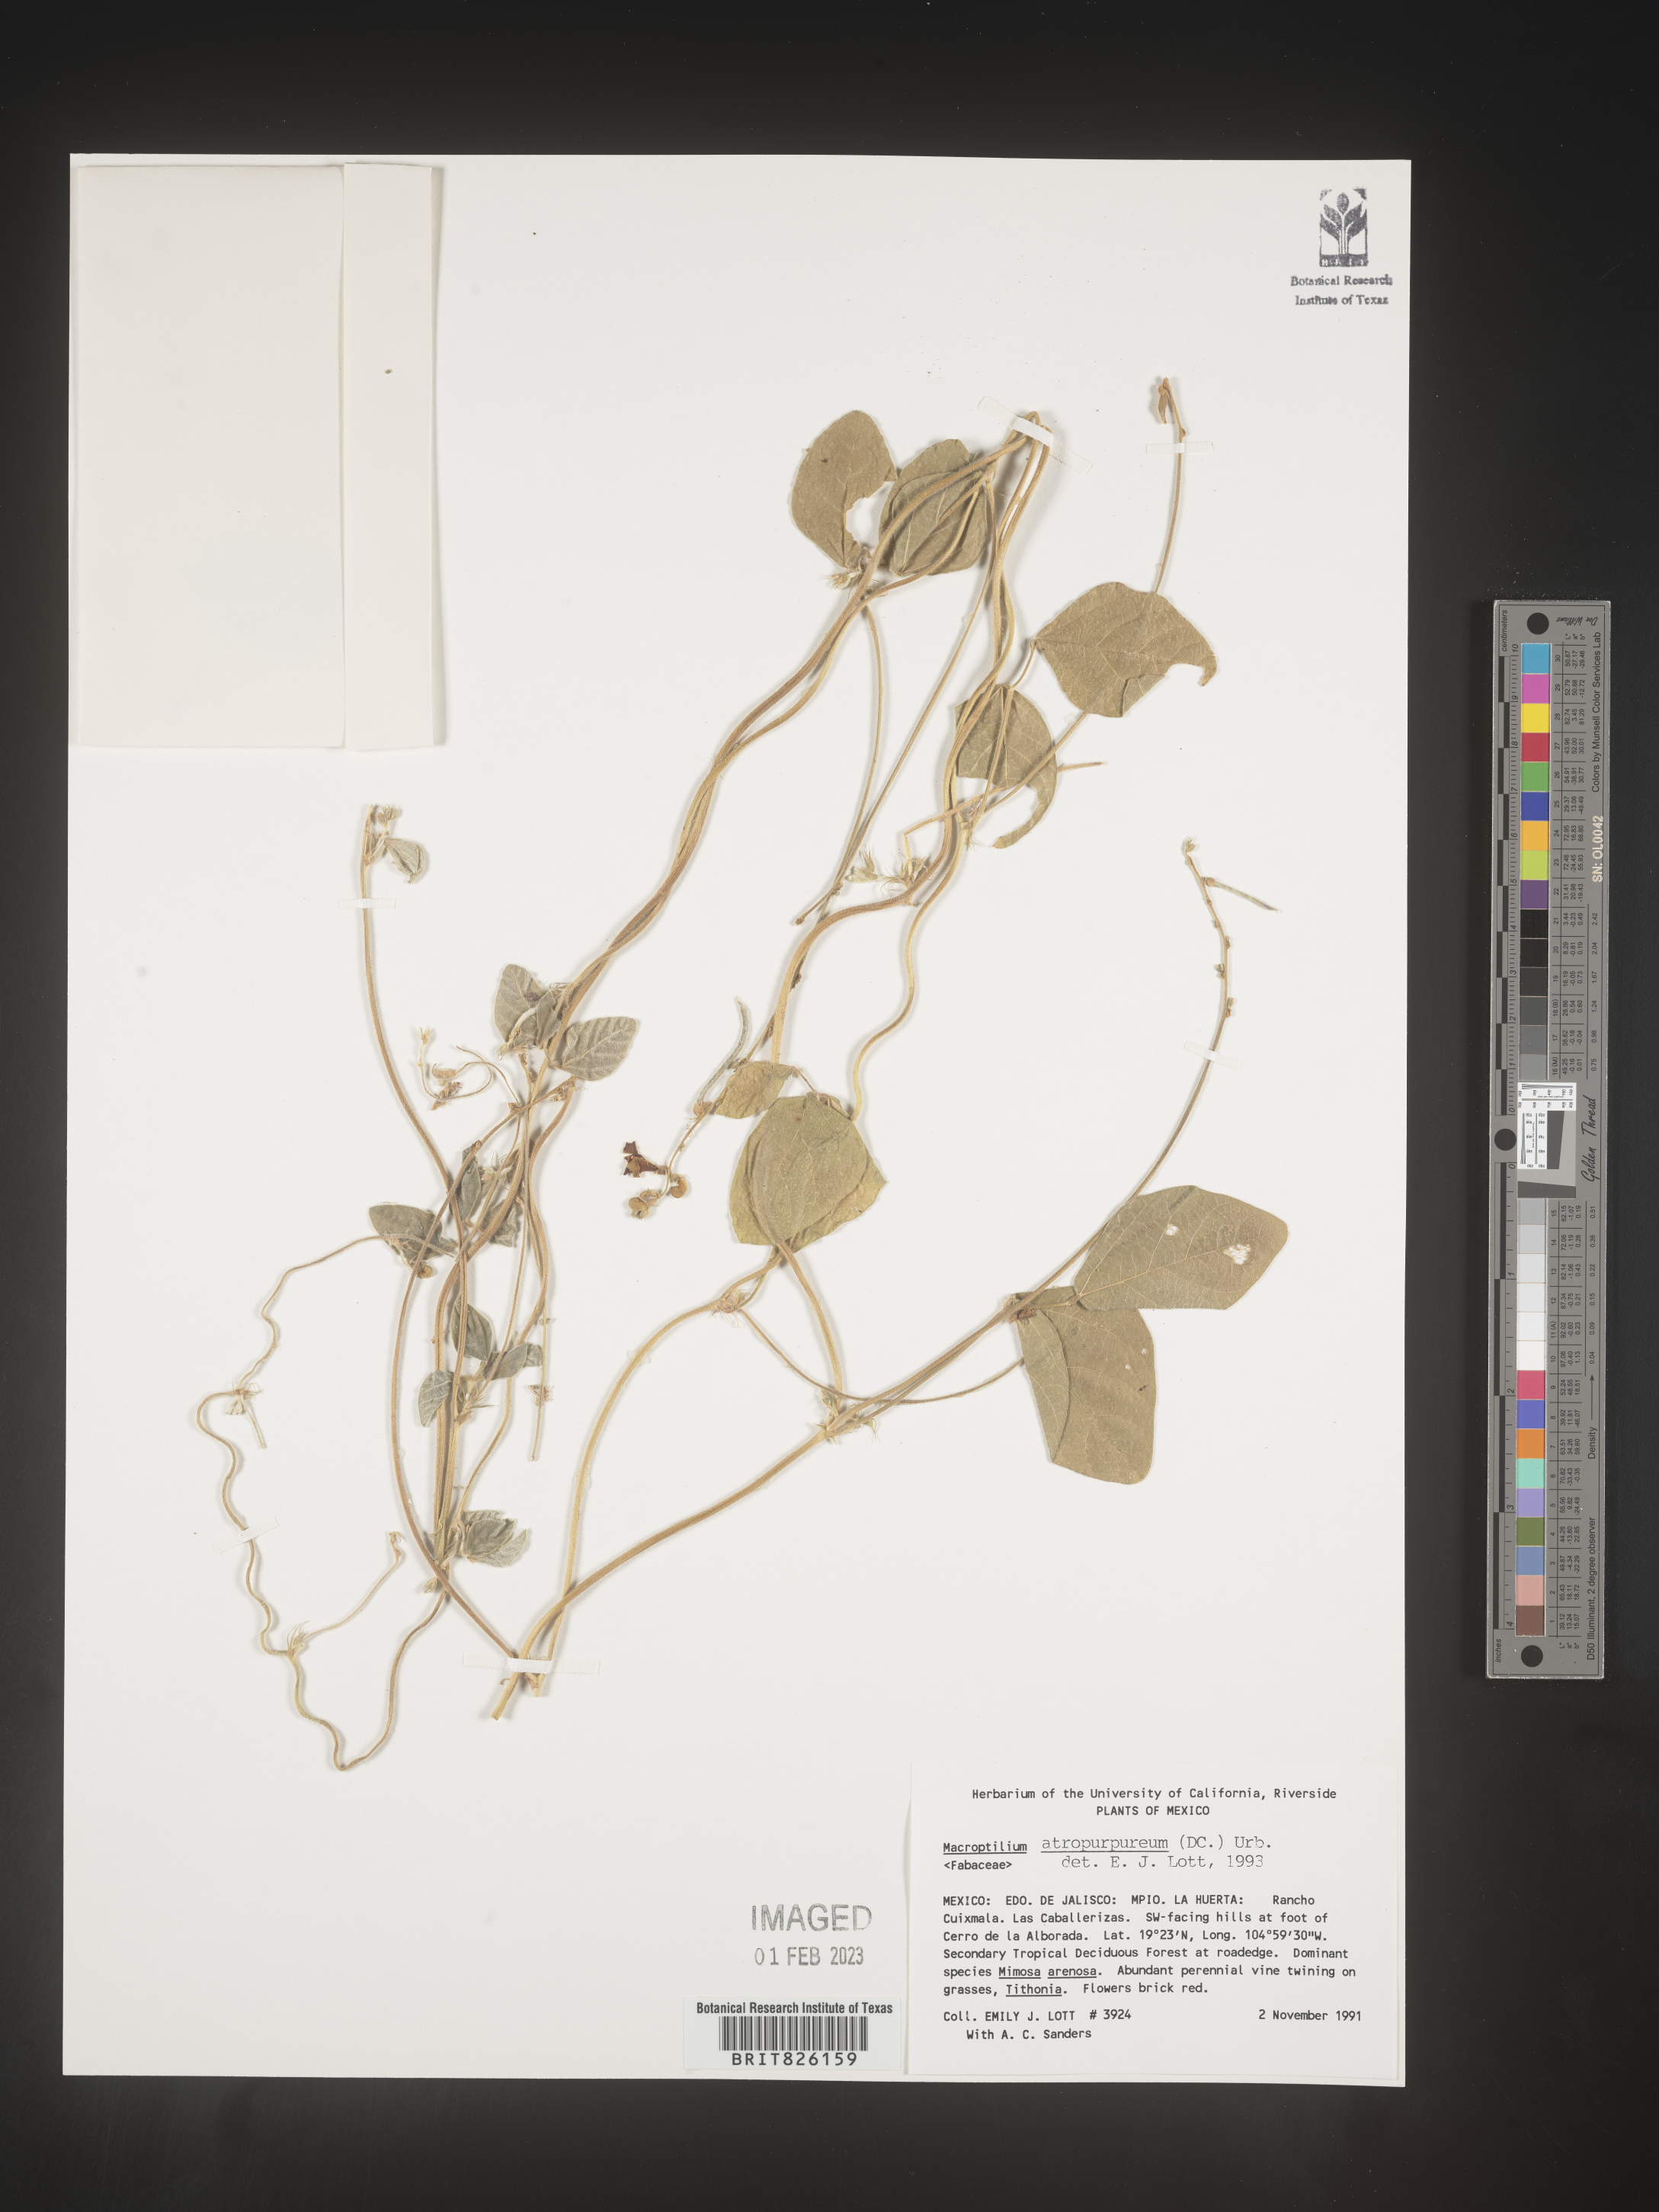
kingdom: Plantae
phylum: Tracheophyta
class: Magnoliopsida
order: Fabales
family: Fabaceae
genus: Macroptilium
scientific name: Macroptilium
